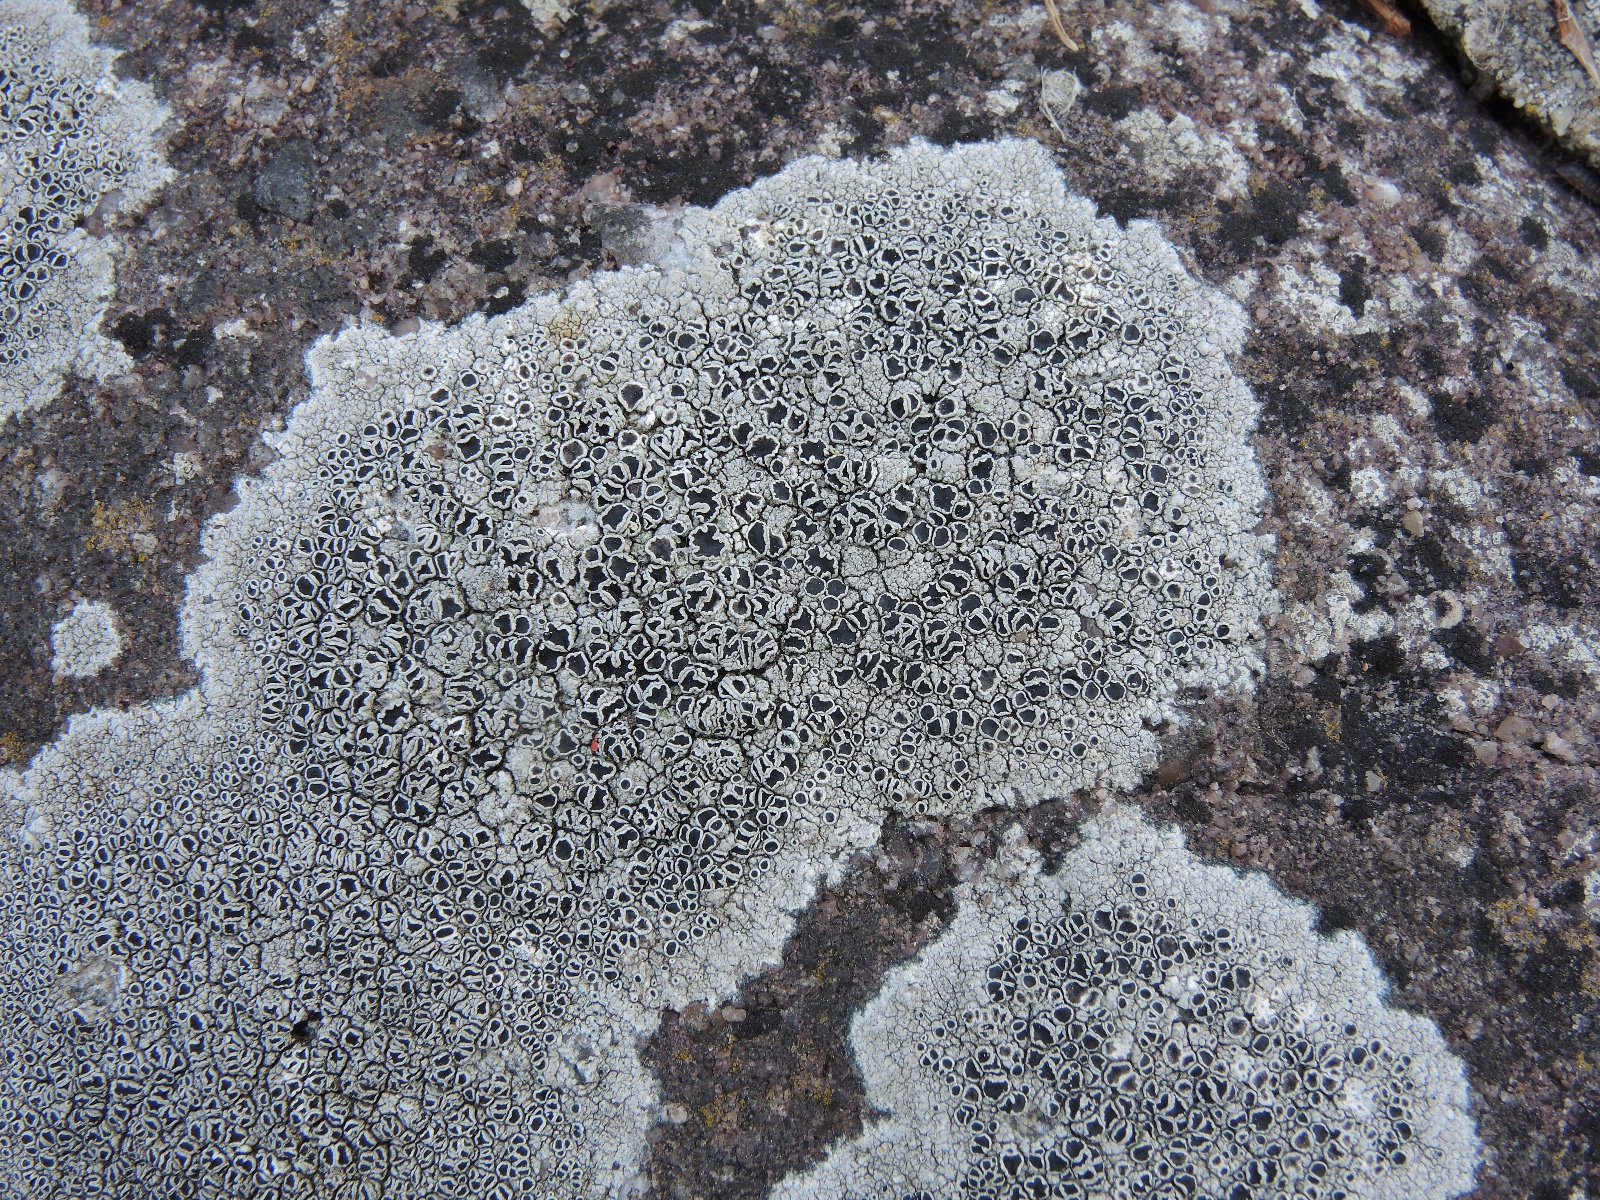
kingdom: Fungi
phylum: Ascomycota
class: Lecanoromycetes
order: Lecanorales
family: Tephromelataceae
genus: Tephromela
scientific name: Tephromela atra
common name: sortfrugtet kantskivelav
